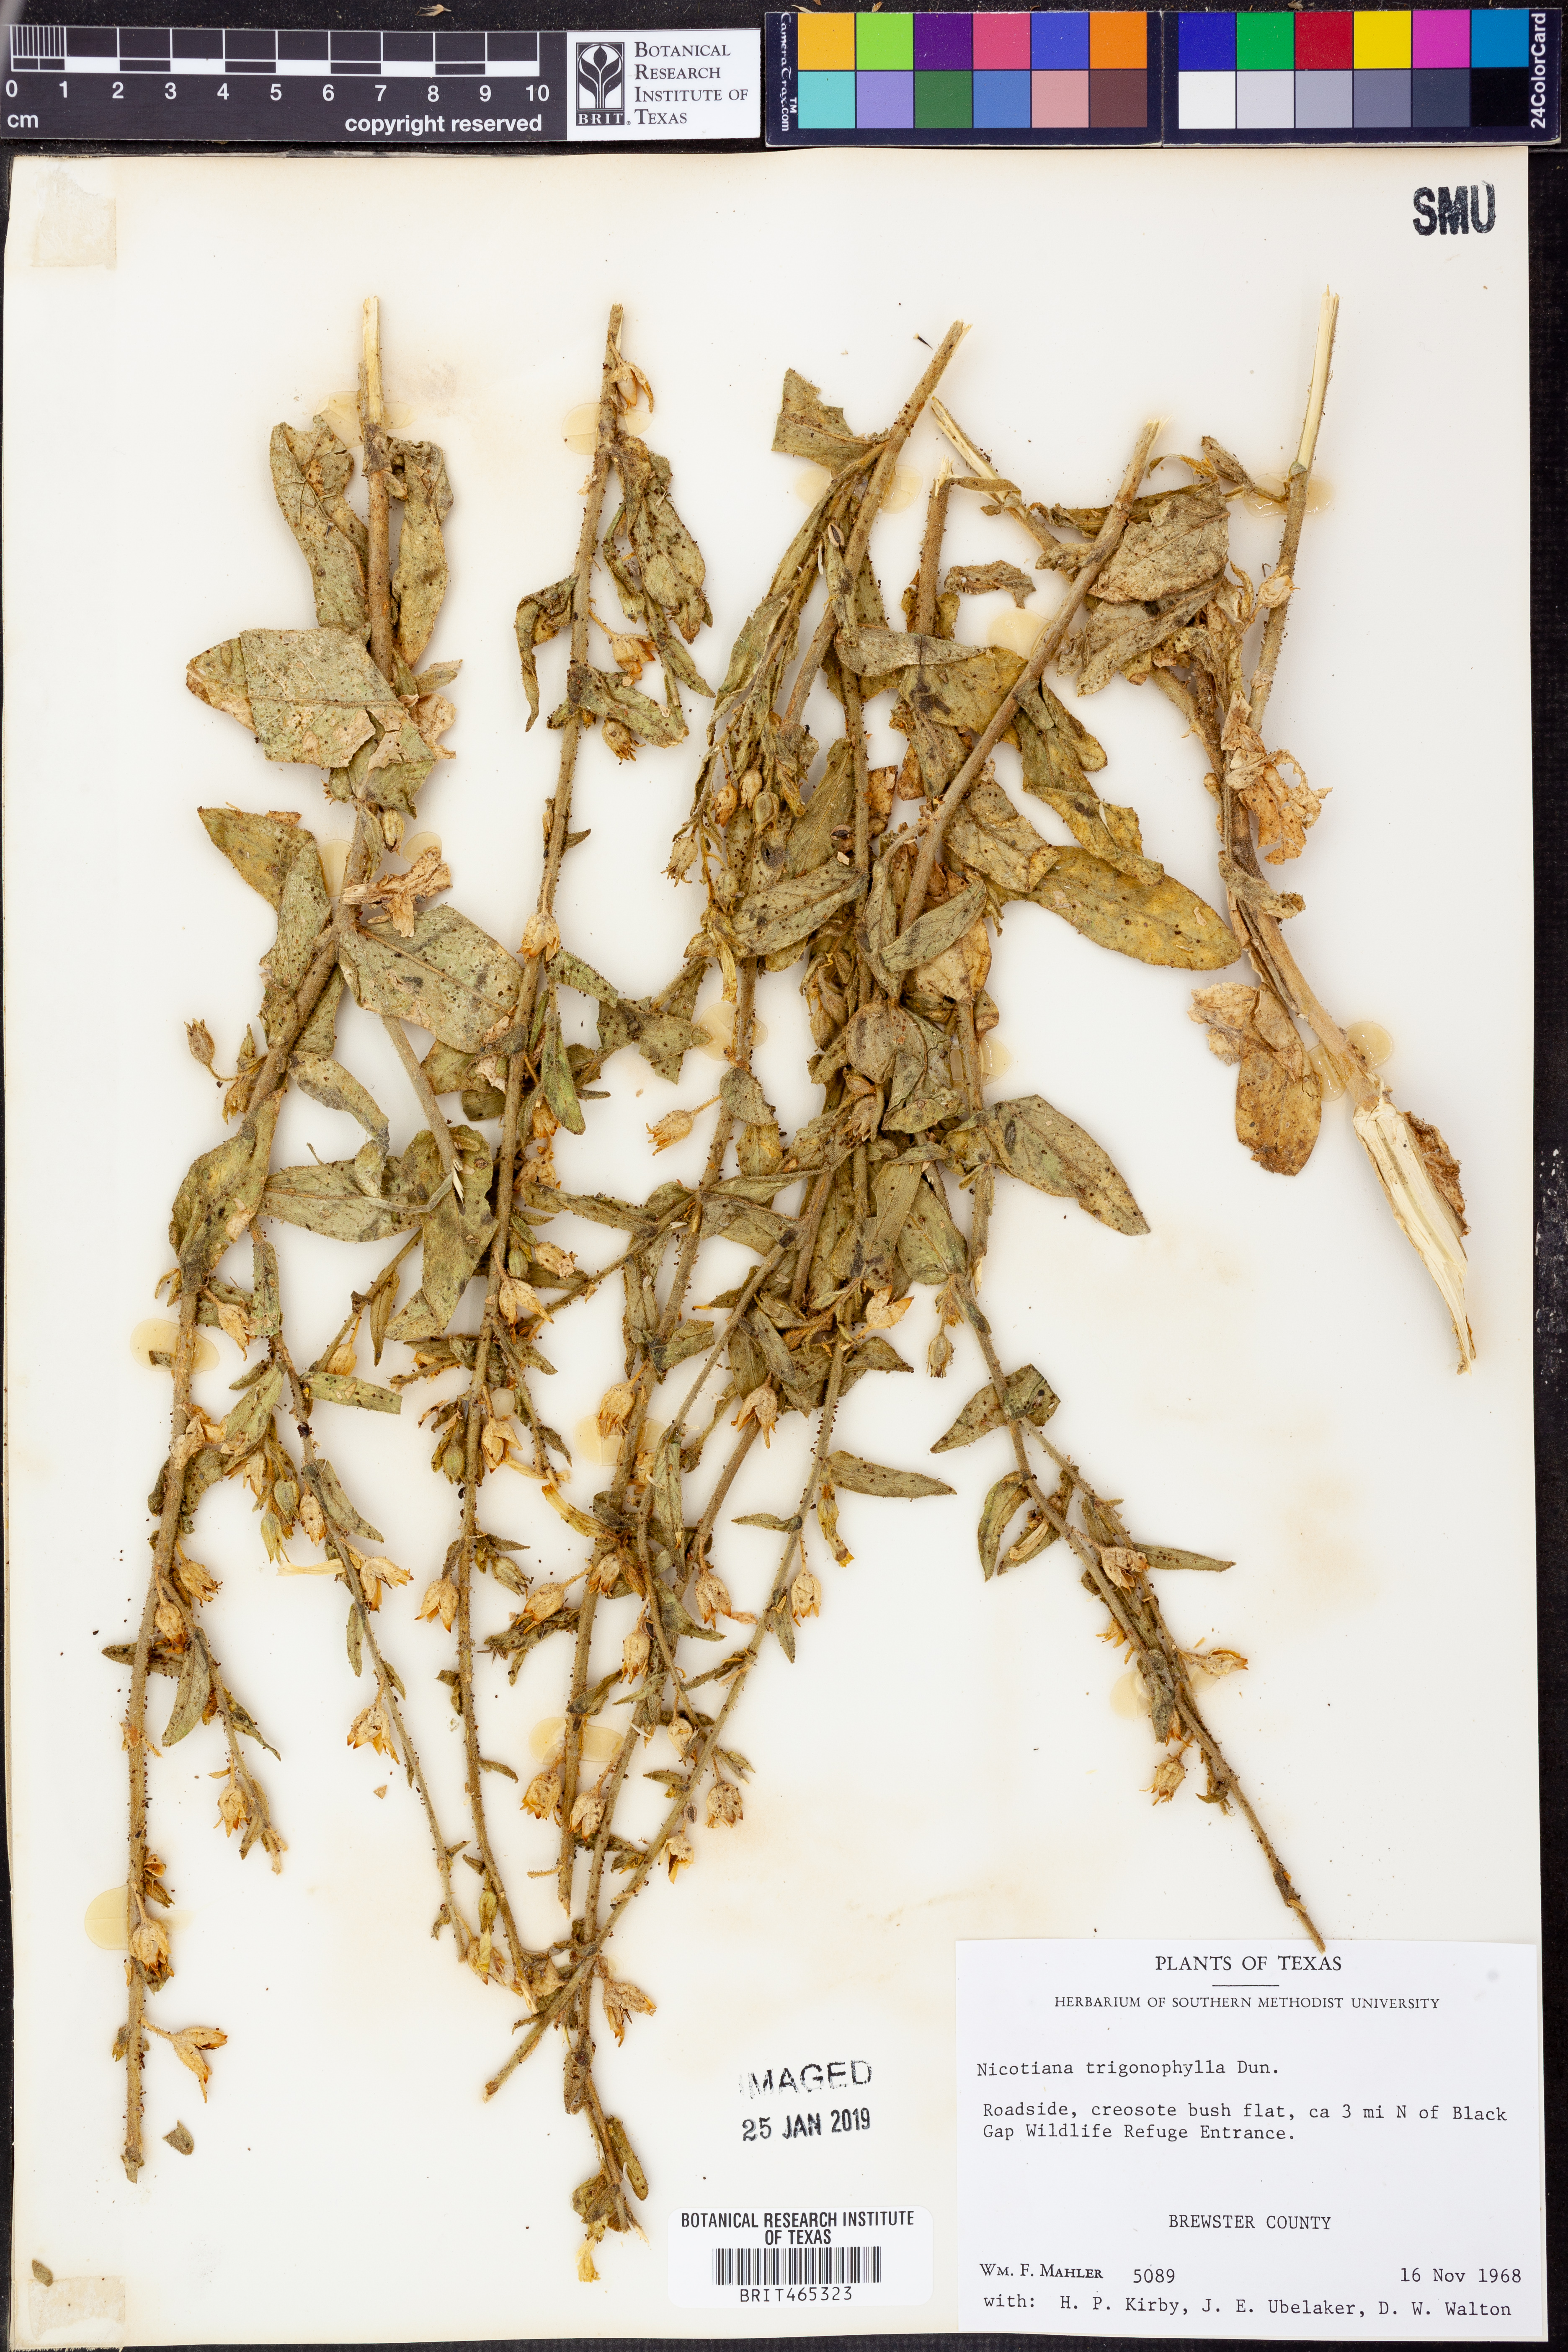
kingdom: Plantae
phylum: Tracheophyta
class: Magnoliopsida
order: Solanales
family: Solanaceae
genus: Nicotiana
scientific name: Nicotiana obtusifolia
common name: Desert tobacco
